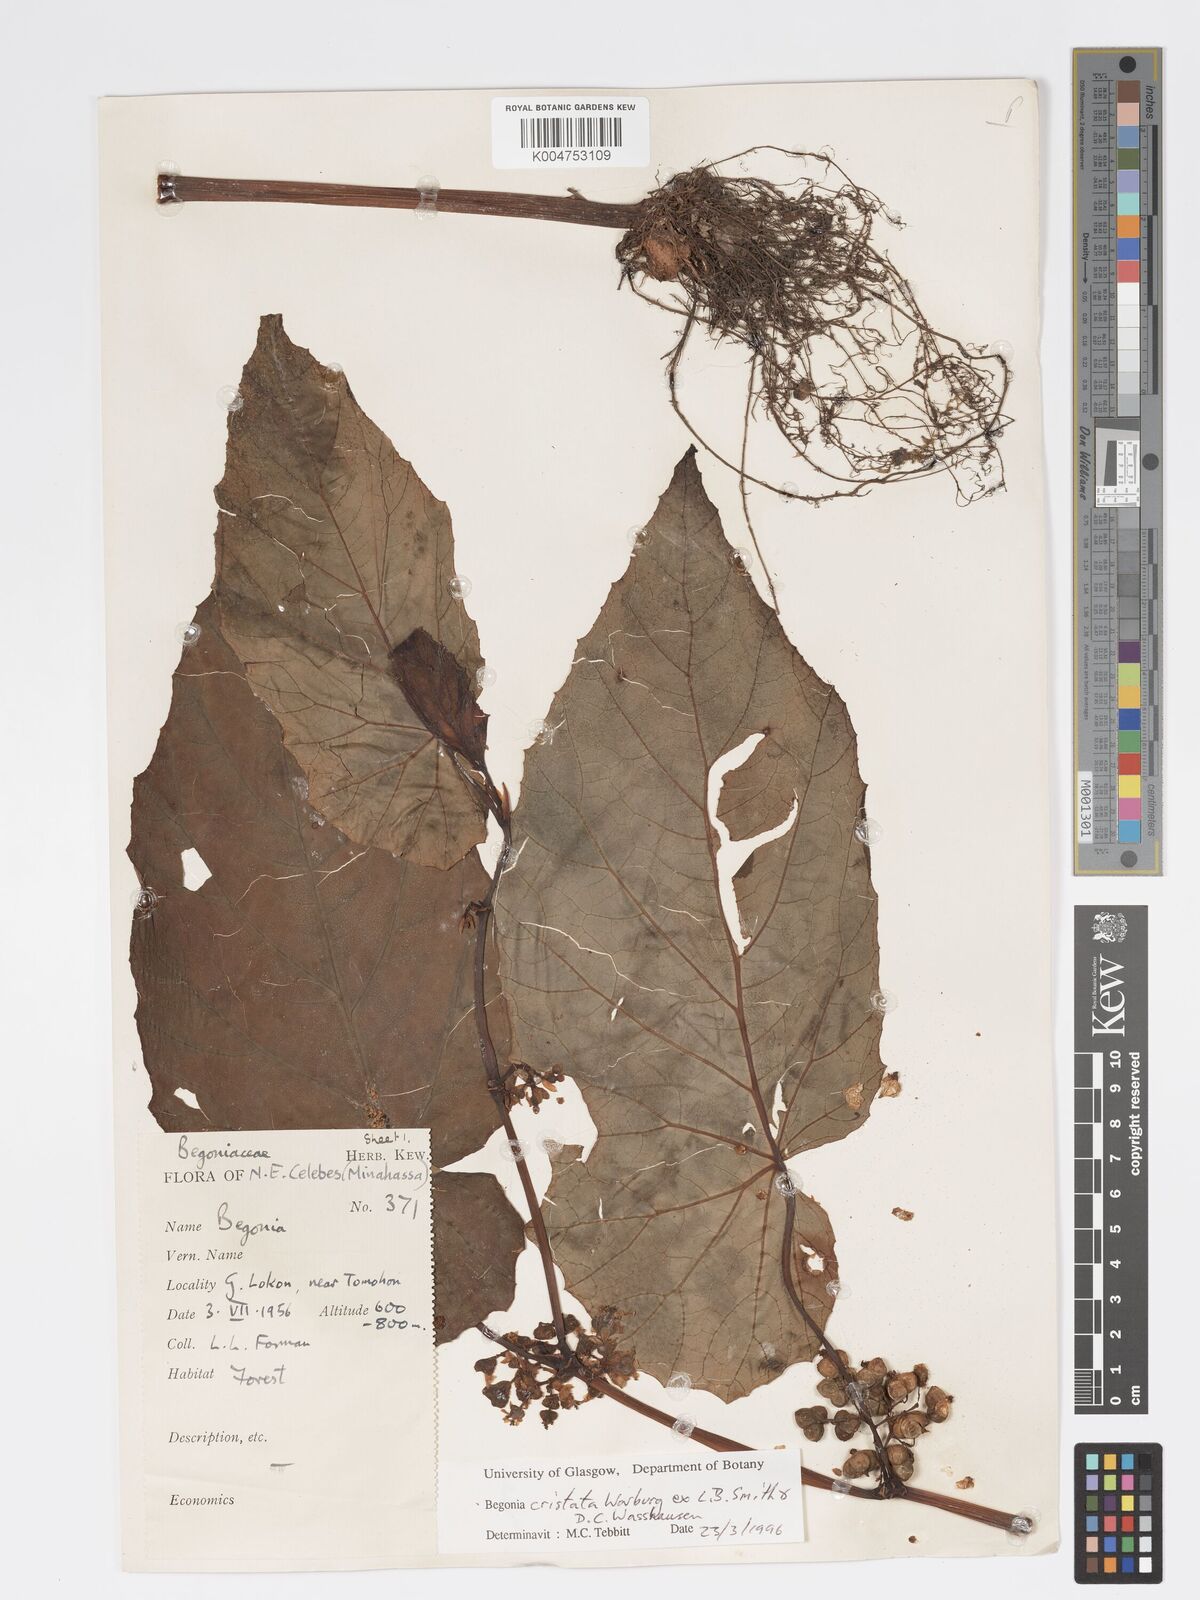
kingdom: Plantae
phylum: Tracheophyta
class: Magnoliopsida
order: Cucurbitales
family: Begoniaceae
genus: Begonia
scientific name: Begonia
